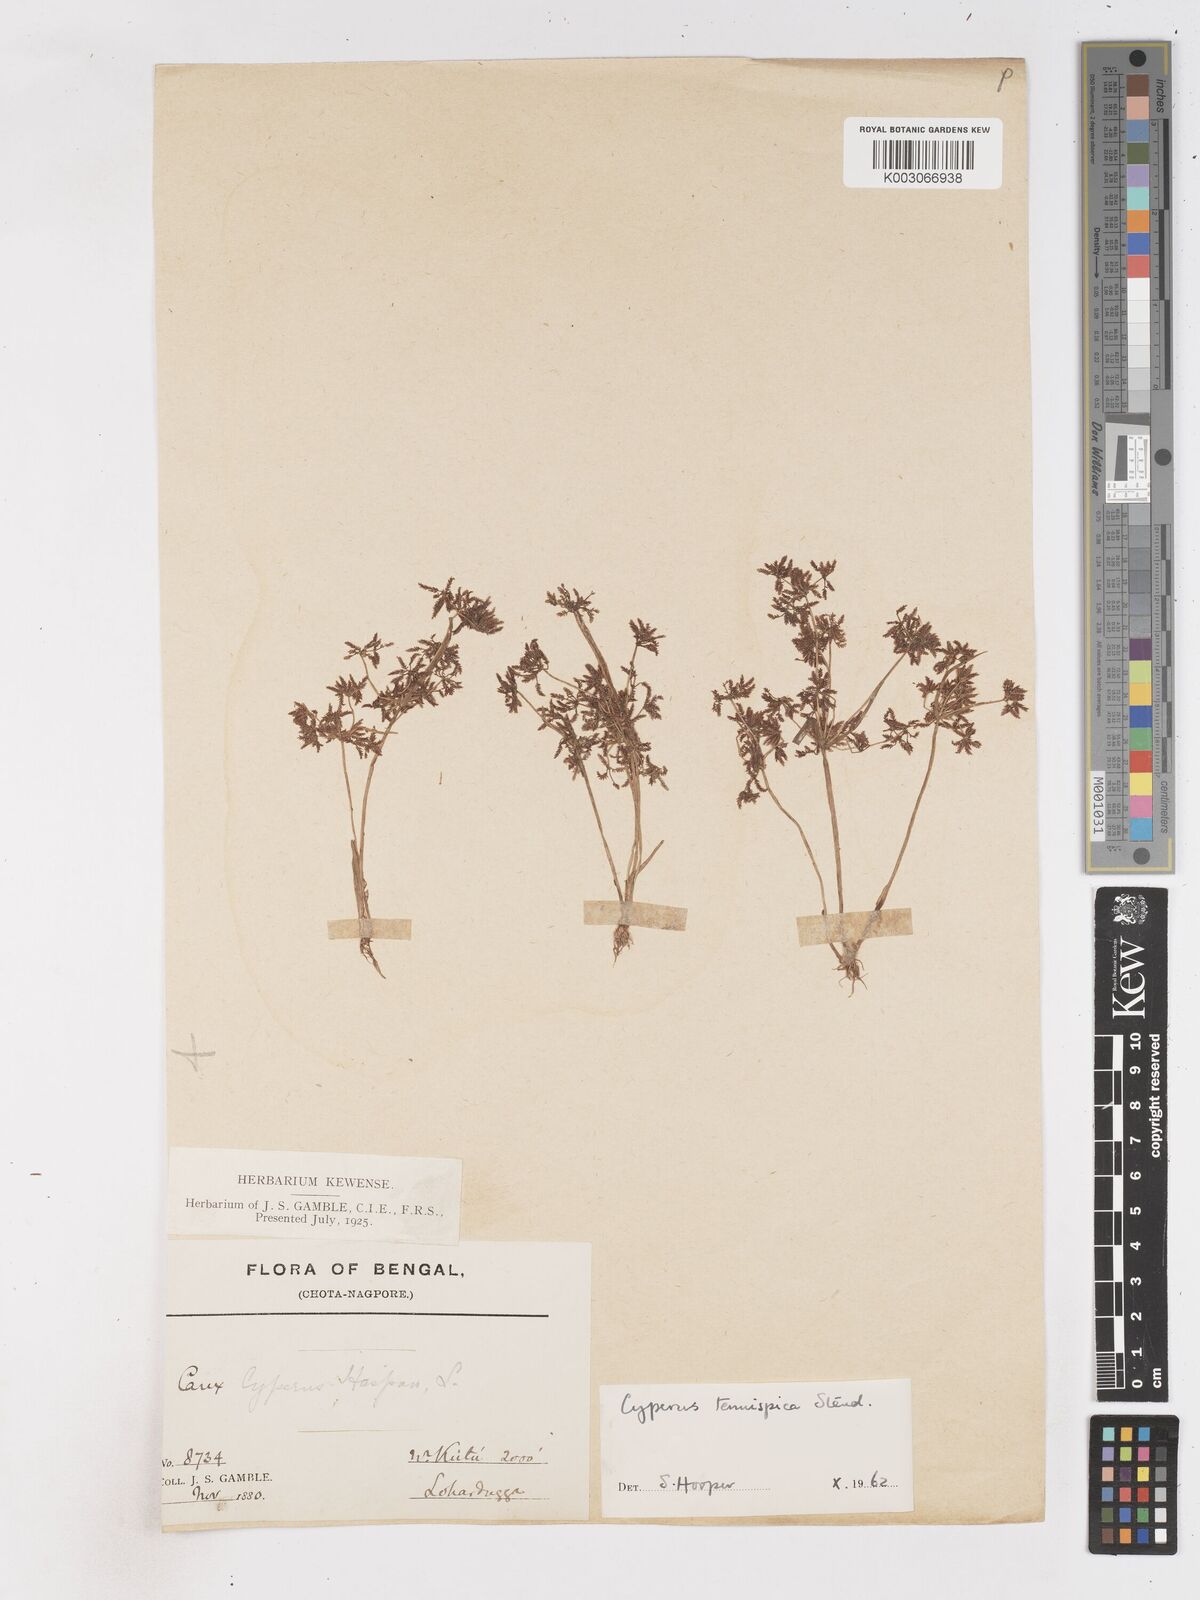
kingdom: Plantae
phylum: Tracheophyta
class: Liliopsida
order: Poales
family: Cyperaceae
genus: Cyperus
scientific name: Cyperus tenuispica
